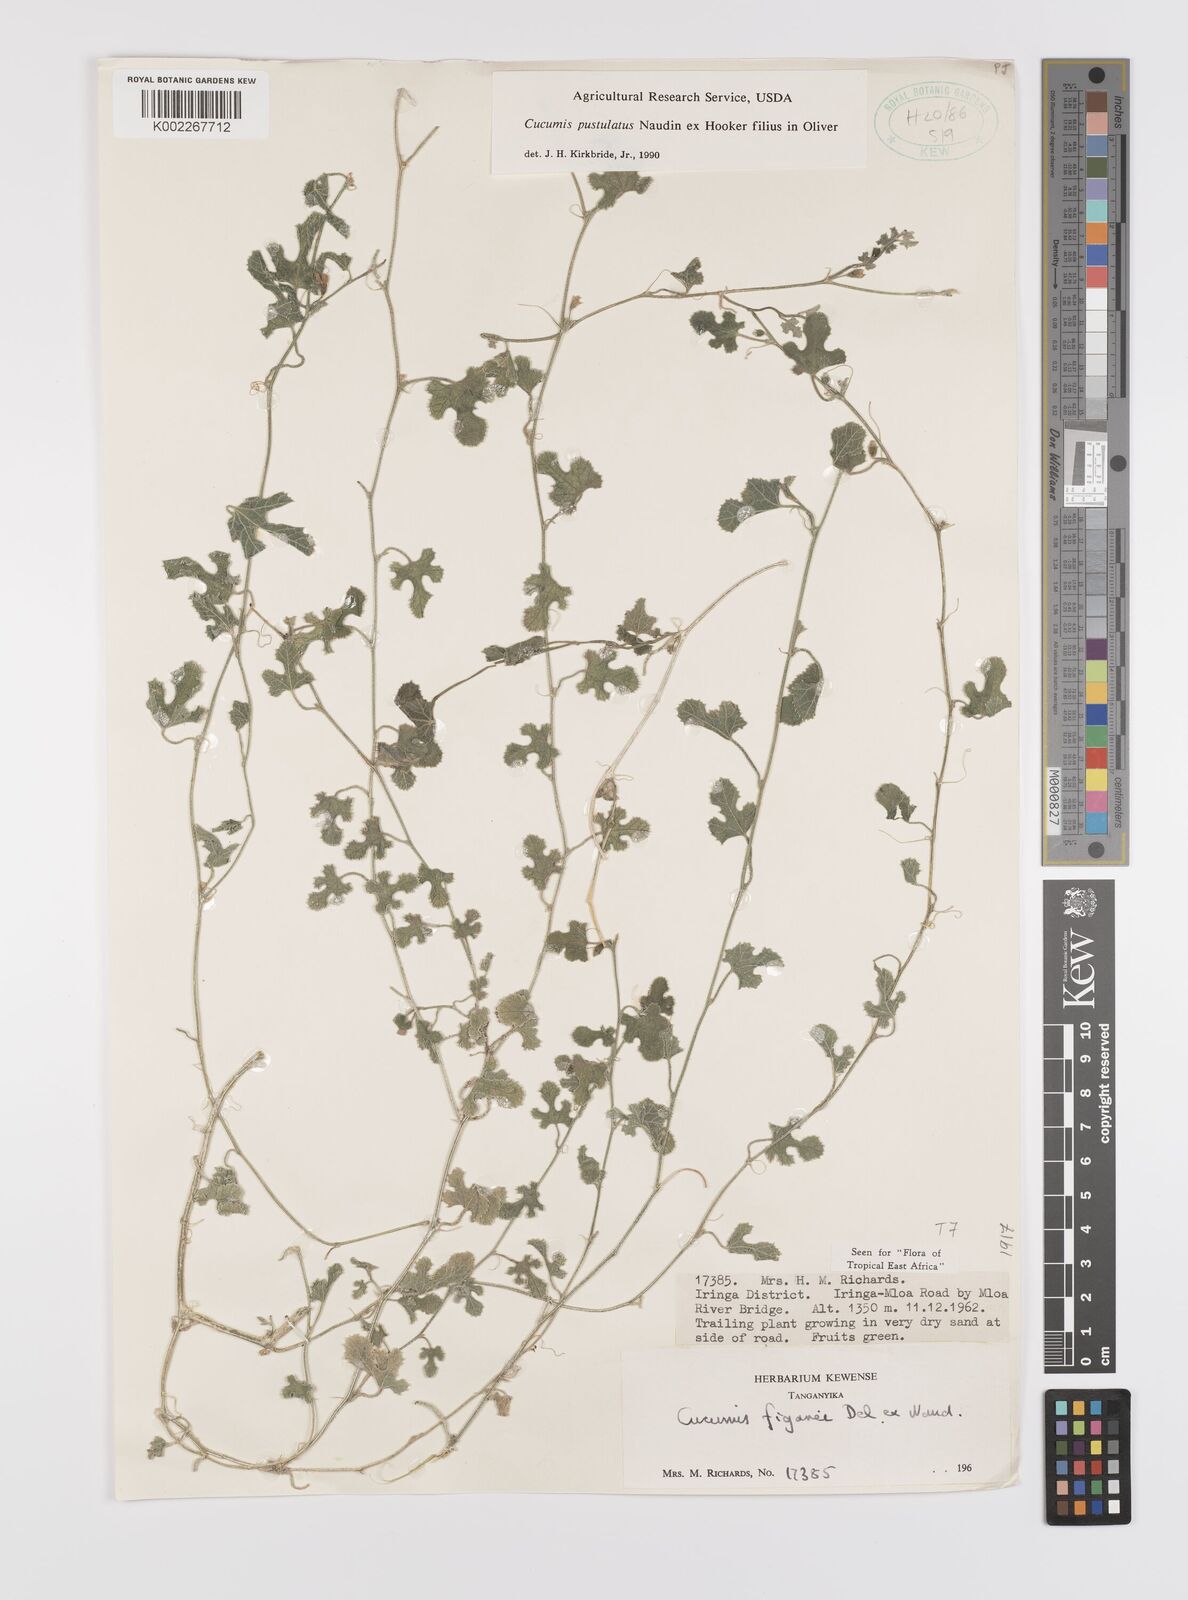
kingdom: Plantae
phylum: Tracheophyta
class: Magnoliopsida
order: Cucurbitales
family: Cucurbitaceae
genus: Cucumis
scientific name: Cucumis pustulatus
